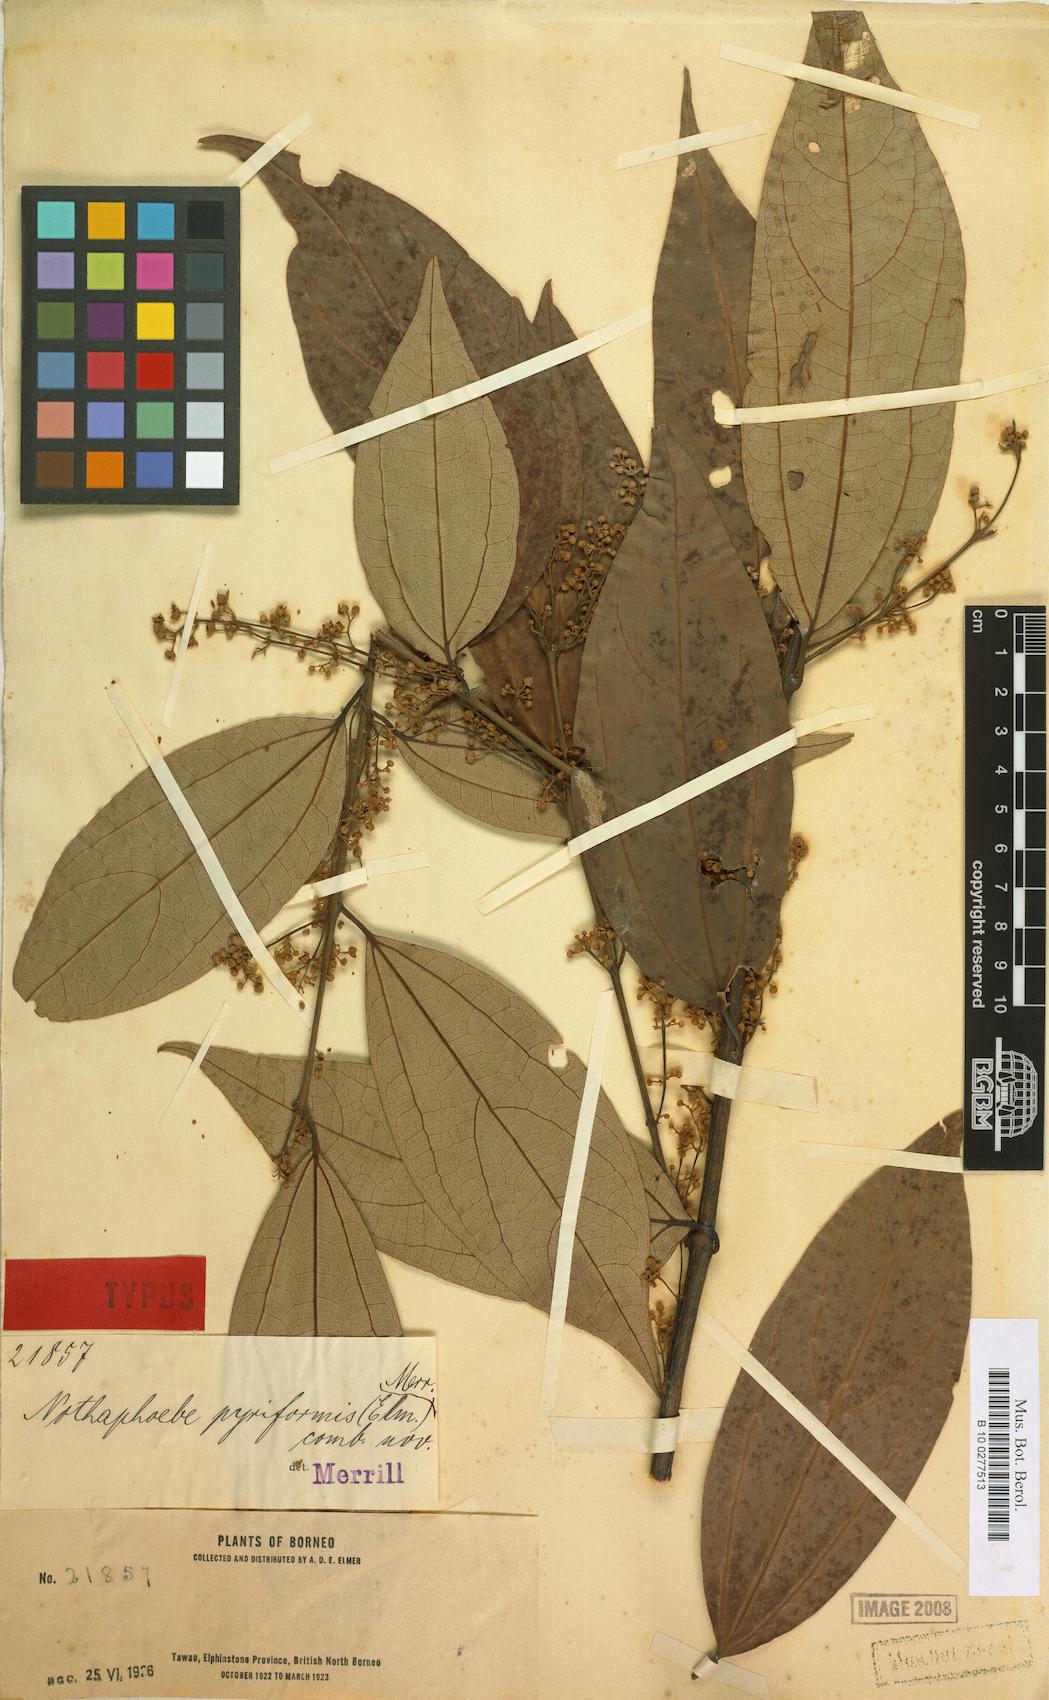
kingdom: Plantae
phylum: Tracheophyta
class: Magnoliopsida
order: Laurales
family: Lauraceae
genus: Caryodaphnopsis
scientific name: Caryodaphnopsis tonkinensis
